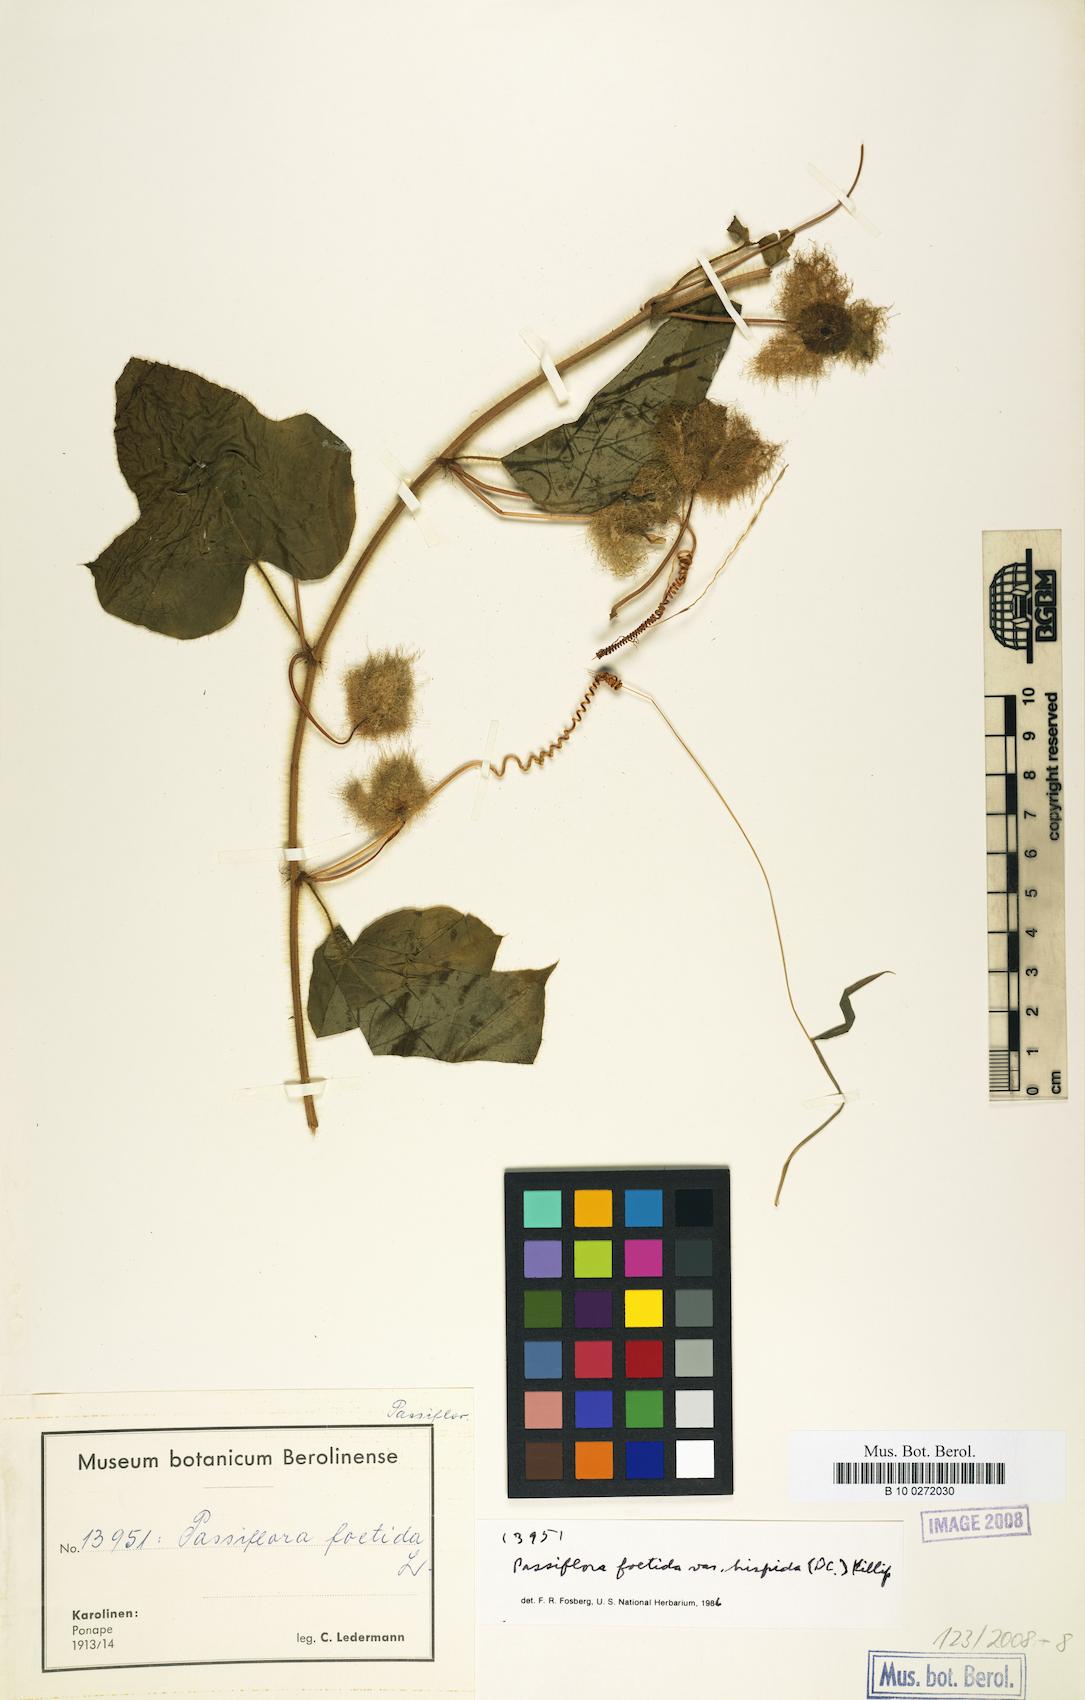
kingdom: Plantae
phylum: Tracheophyta
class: Magnoliopsida
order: Malpighiales
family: Passifloraceae
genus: Passiflora
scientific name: Passiflora vesicaria
